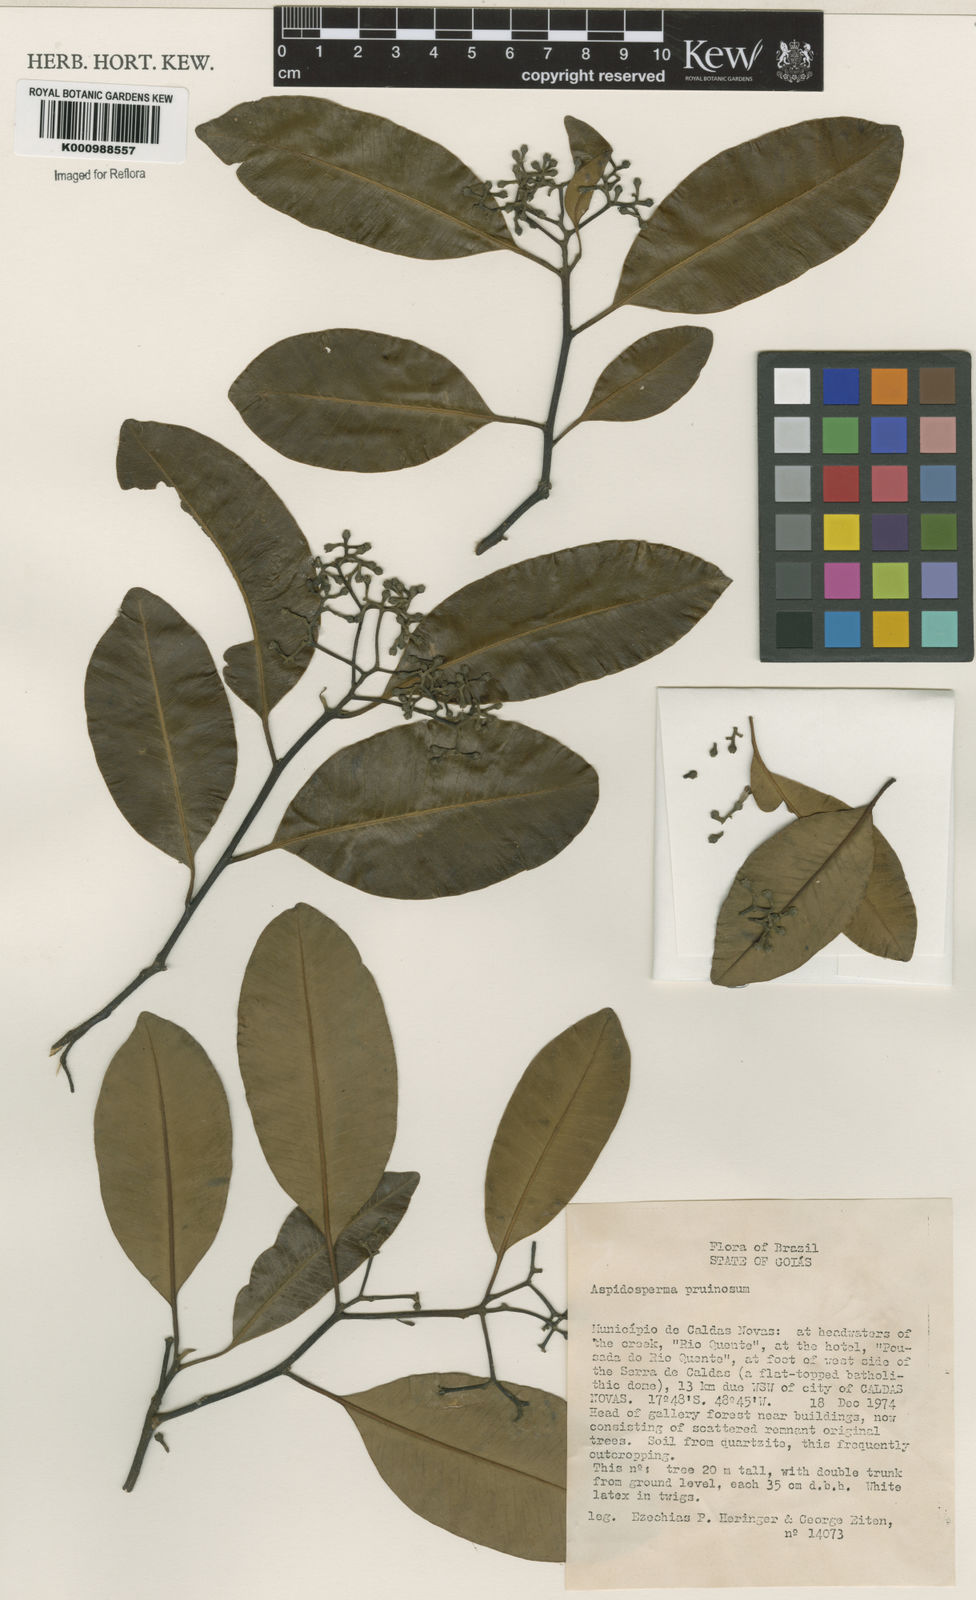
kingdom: Plantae
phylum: Tracheophyta
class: Magnoliopsida
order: Gentianales
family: Apocynaceae
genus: Aspidosperma
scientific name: Aspidosperma eburneum
